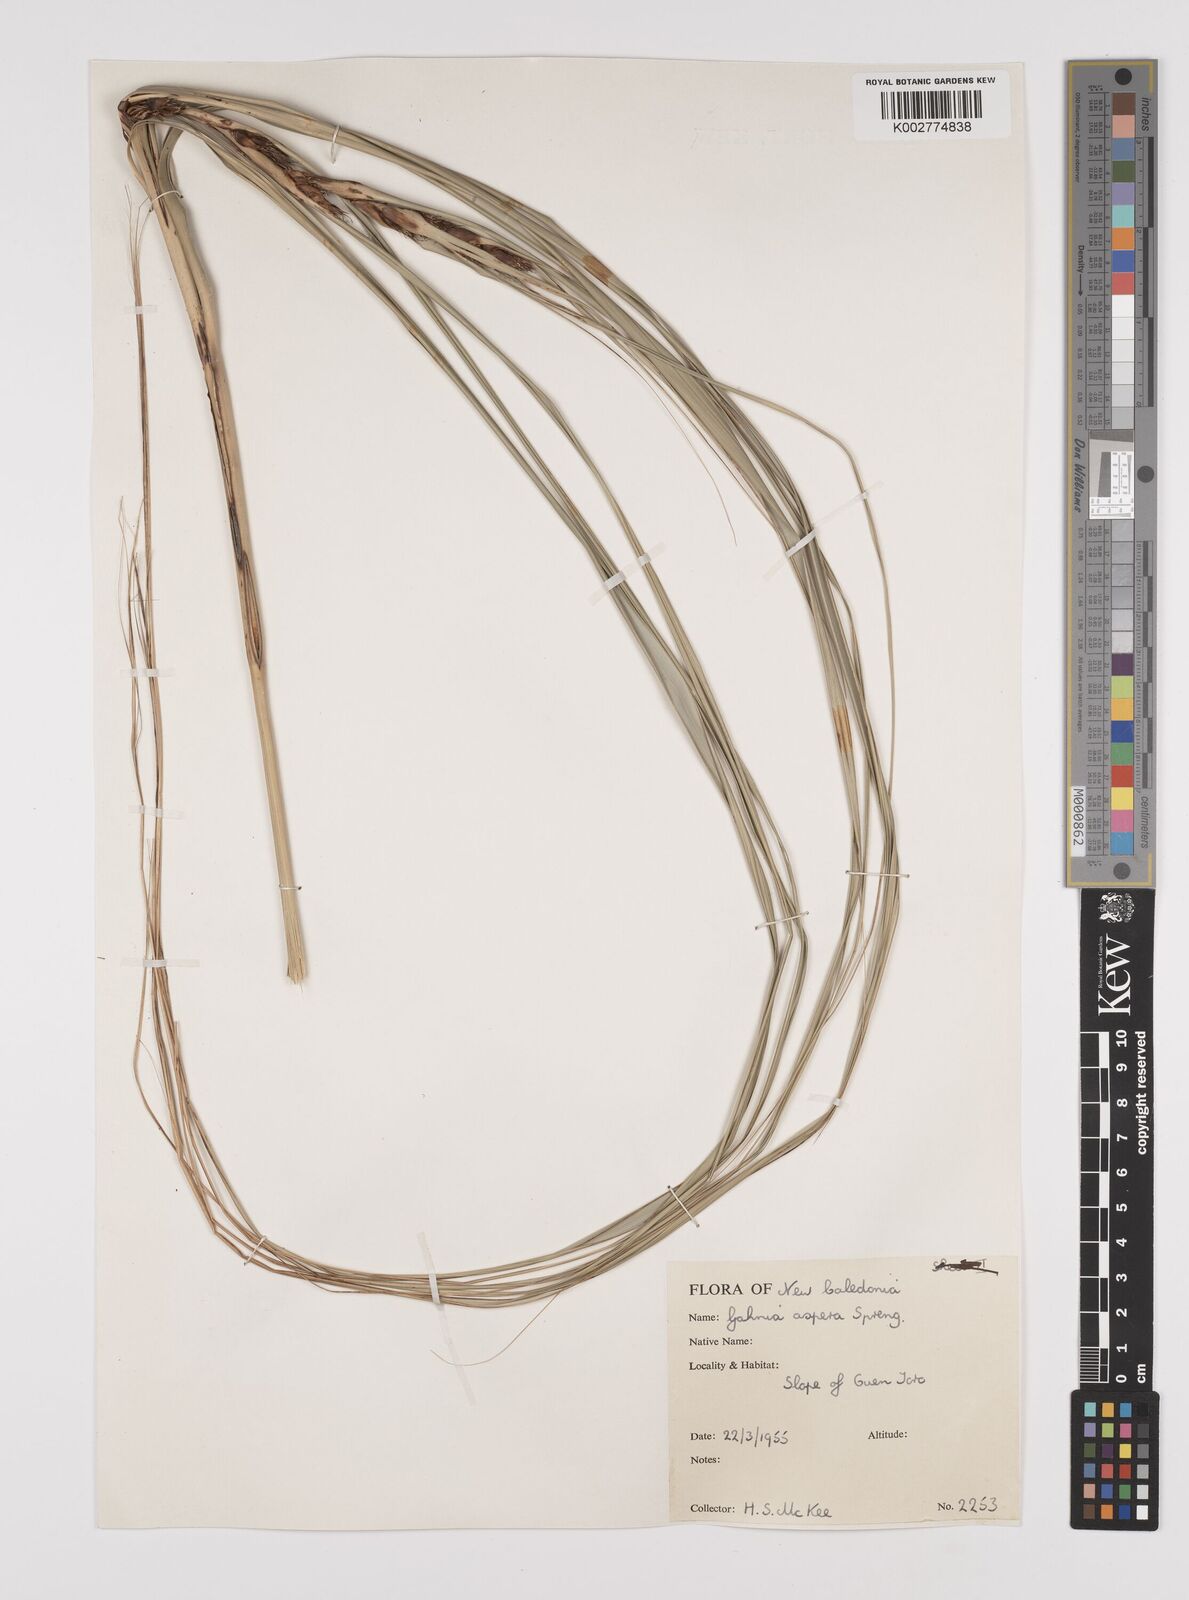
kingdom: Plantae
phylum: Tracheophyta
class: Liliopsida
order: Poales
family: Cyperaceae
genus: Gahnia
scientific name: Gahnia aspera
